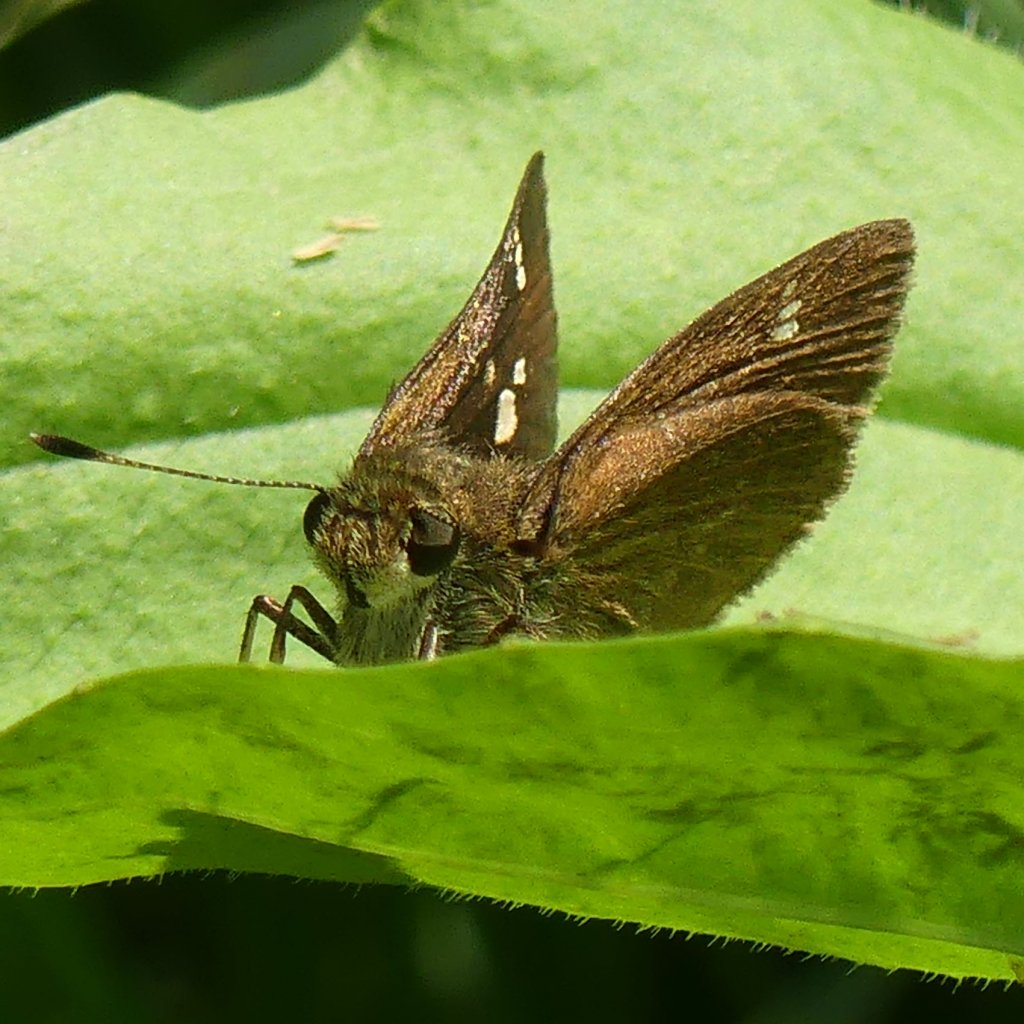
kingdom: Animalia
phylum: Arthropoda
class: Insecta
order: Lepidoptera
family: Hesperiidae
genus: Vernia
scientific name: Vernia verna
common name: Little Glassywing
